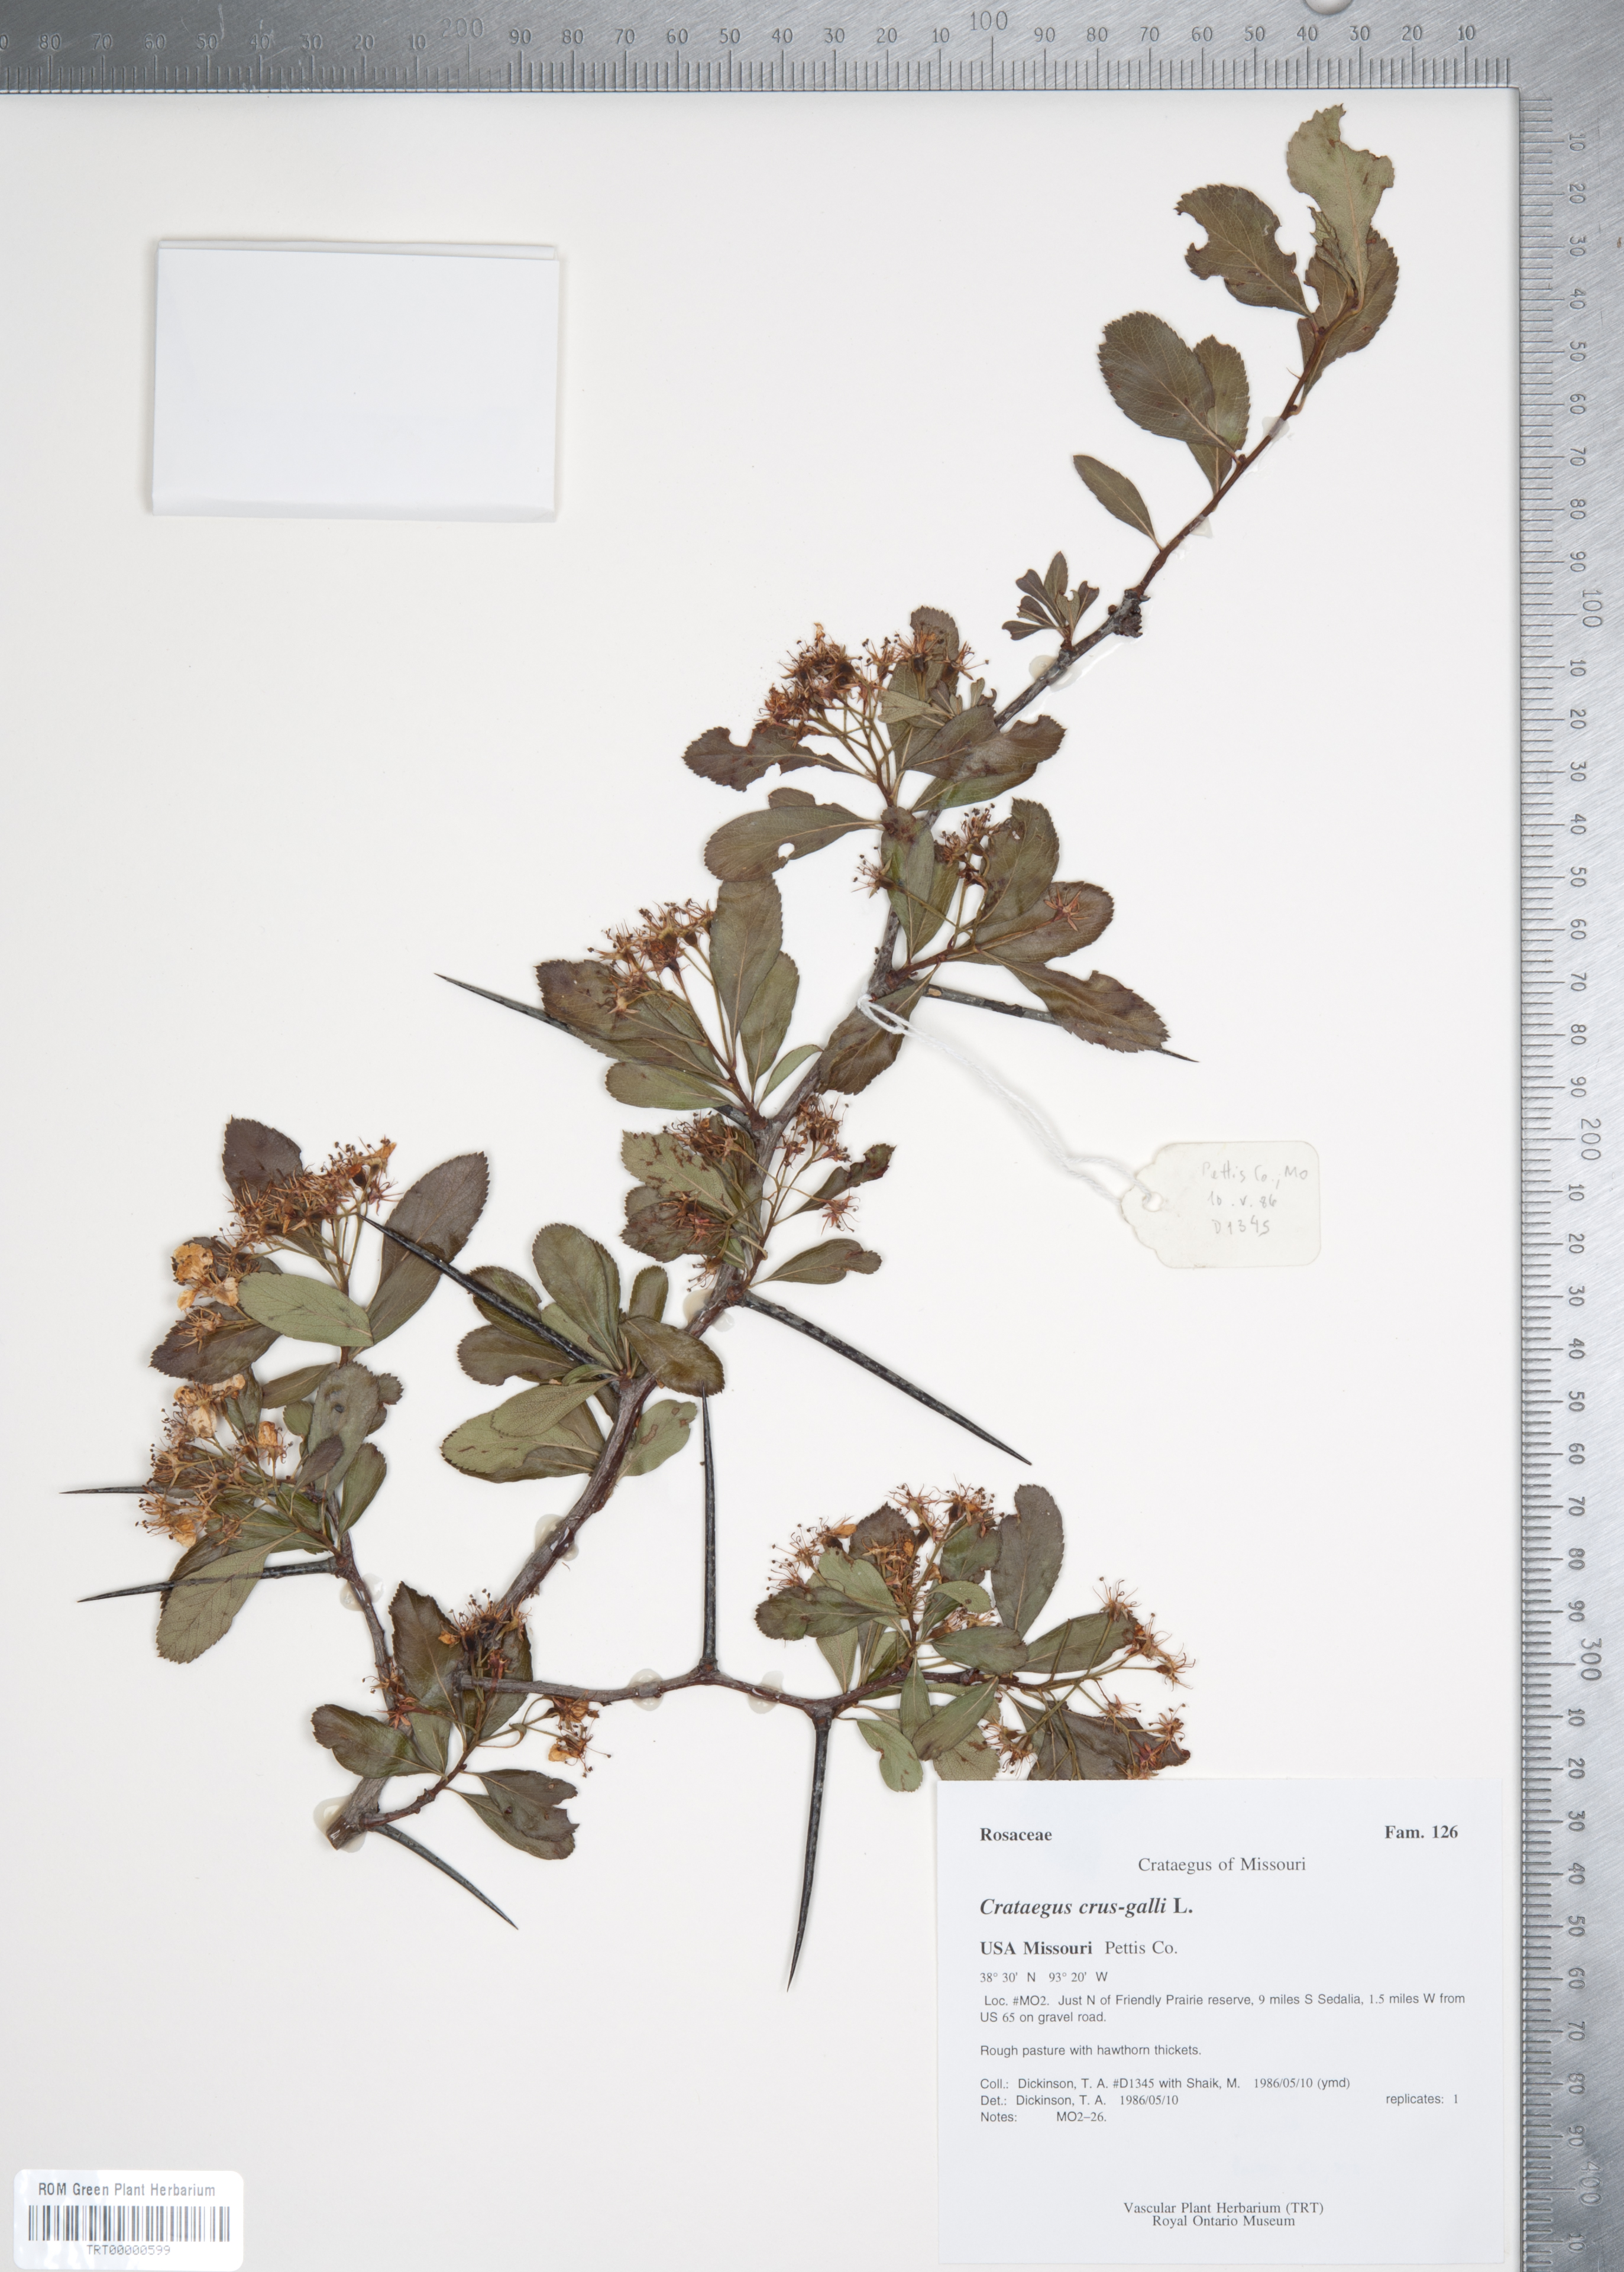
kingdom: Plantae
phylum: Tracheophyta
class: Magnoliopsida
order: Rosales
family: Rosaceae
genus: Crataegus
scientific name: Crataegus crus-galli
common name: Cockspurthorn
